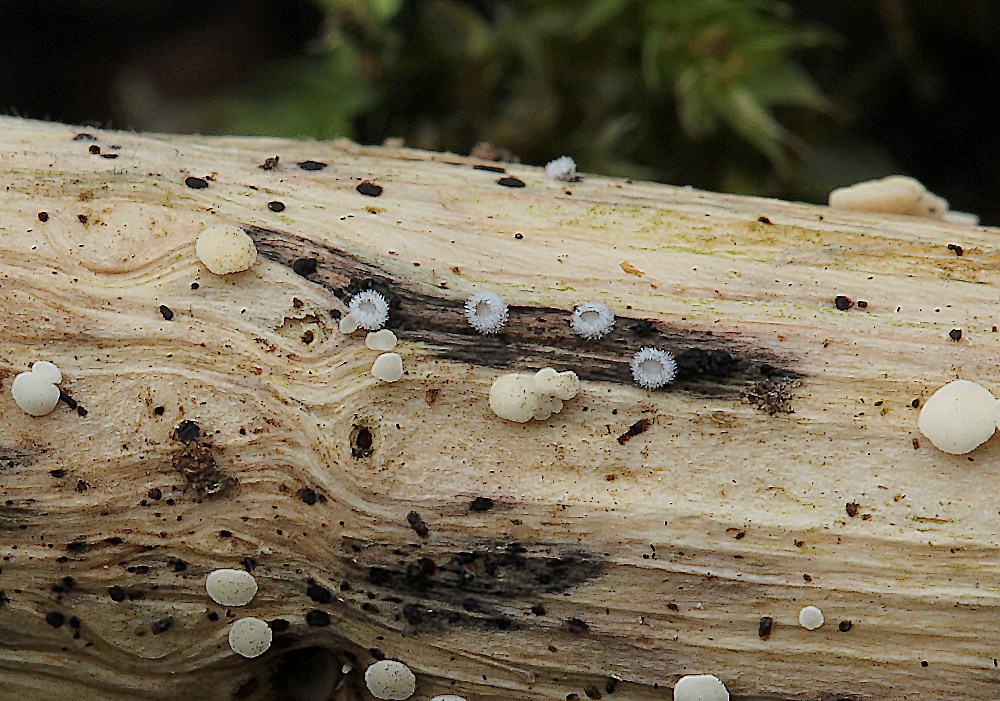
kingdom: Fungi
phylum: Basidiomycota
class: Agaricomycetes
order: Agaricales
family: Niaceae
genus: Lachnella
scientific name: Lachnella alboviolascens
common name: grå frynserede
